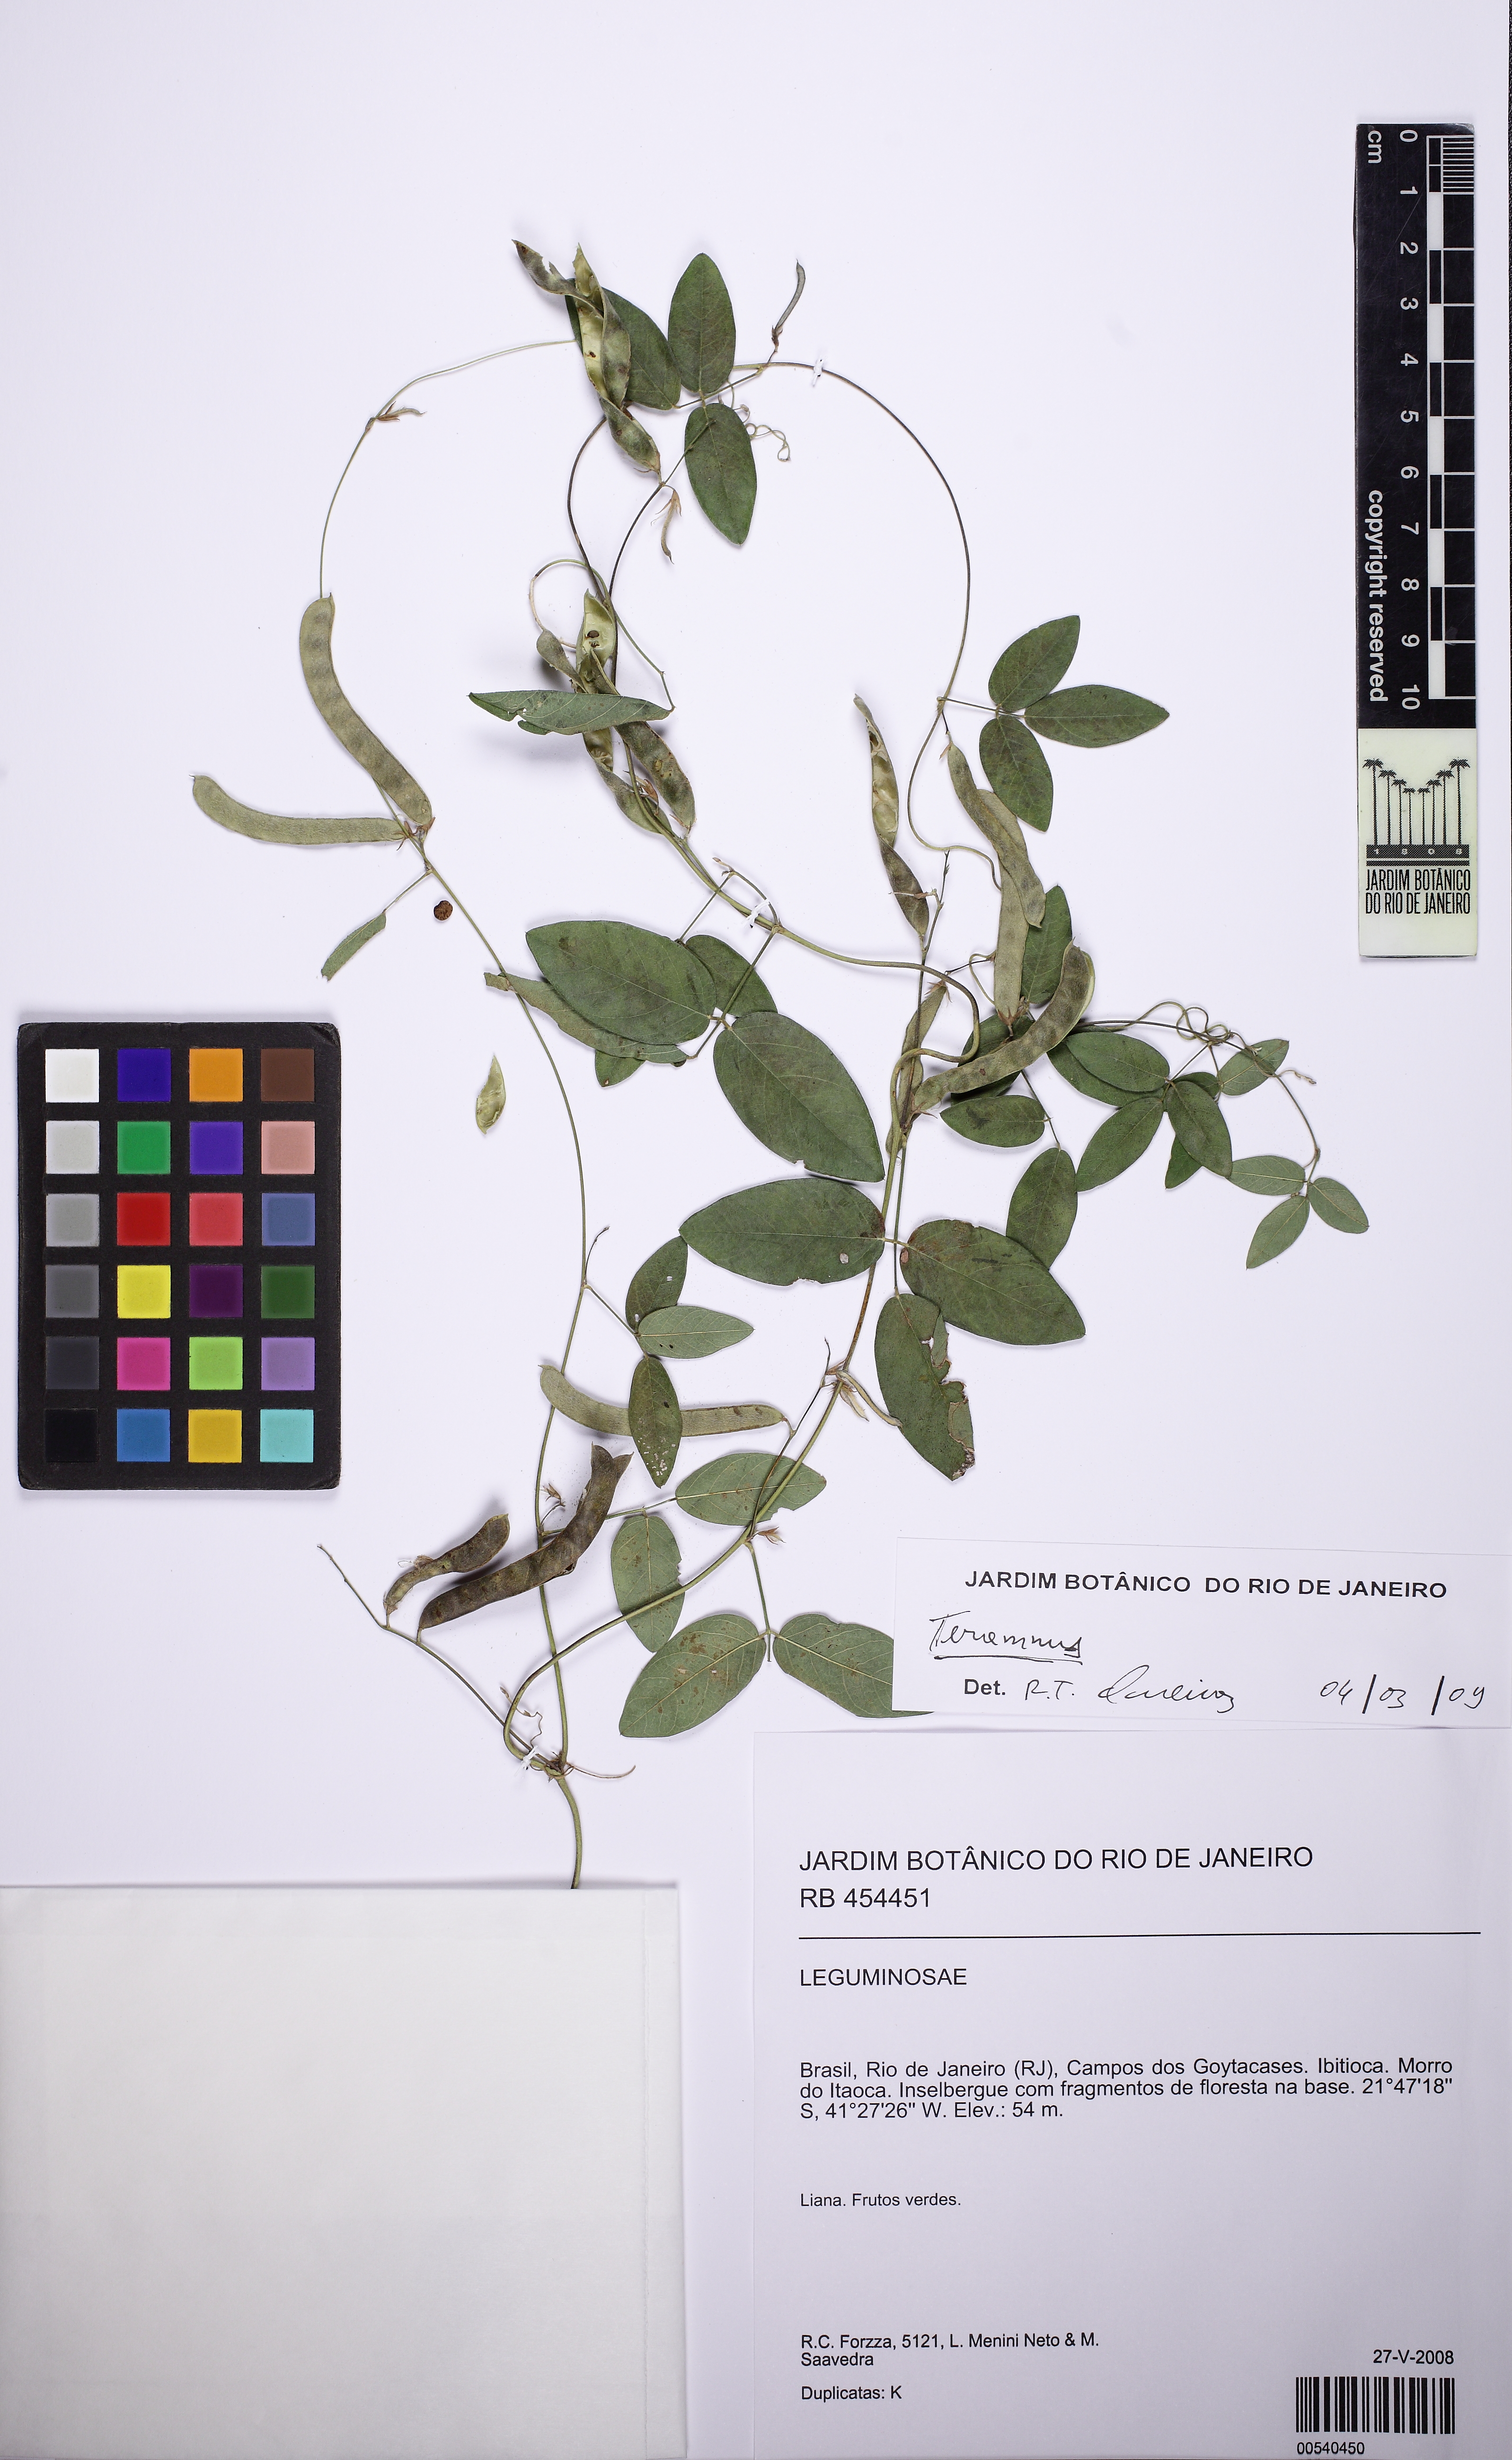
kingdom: Plantae
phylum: Tracheophyta
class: Magnoliopsida
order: Fabales
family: Fabaceae
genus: Teramnus
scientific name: Teramnus
